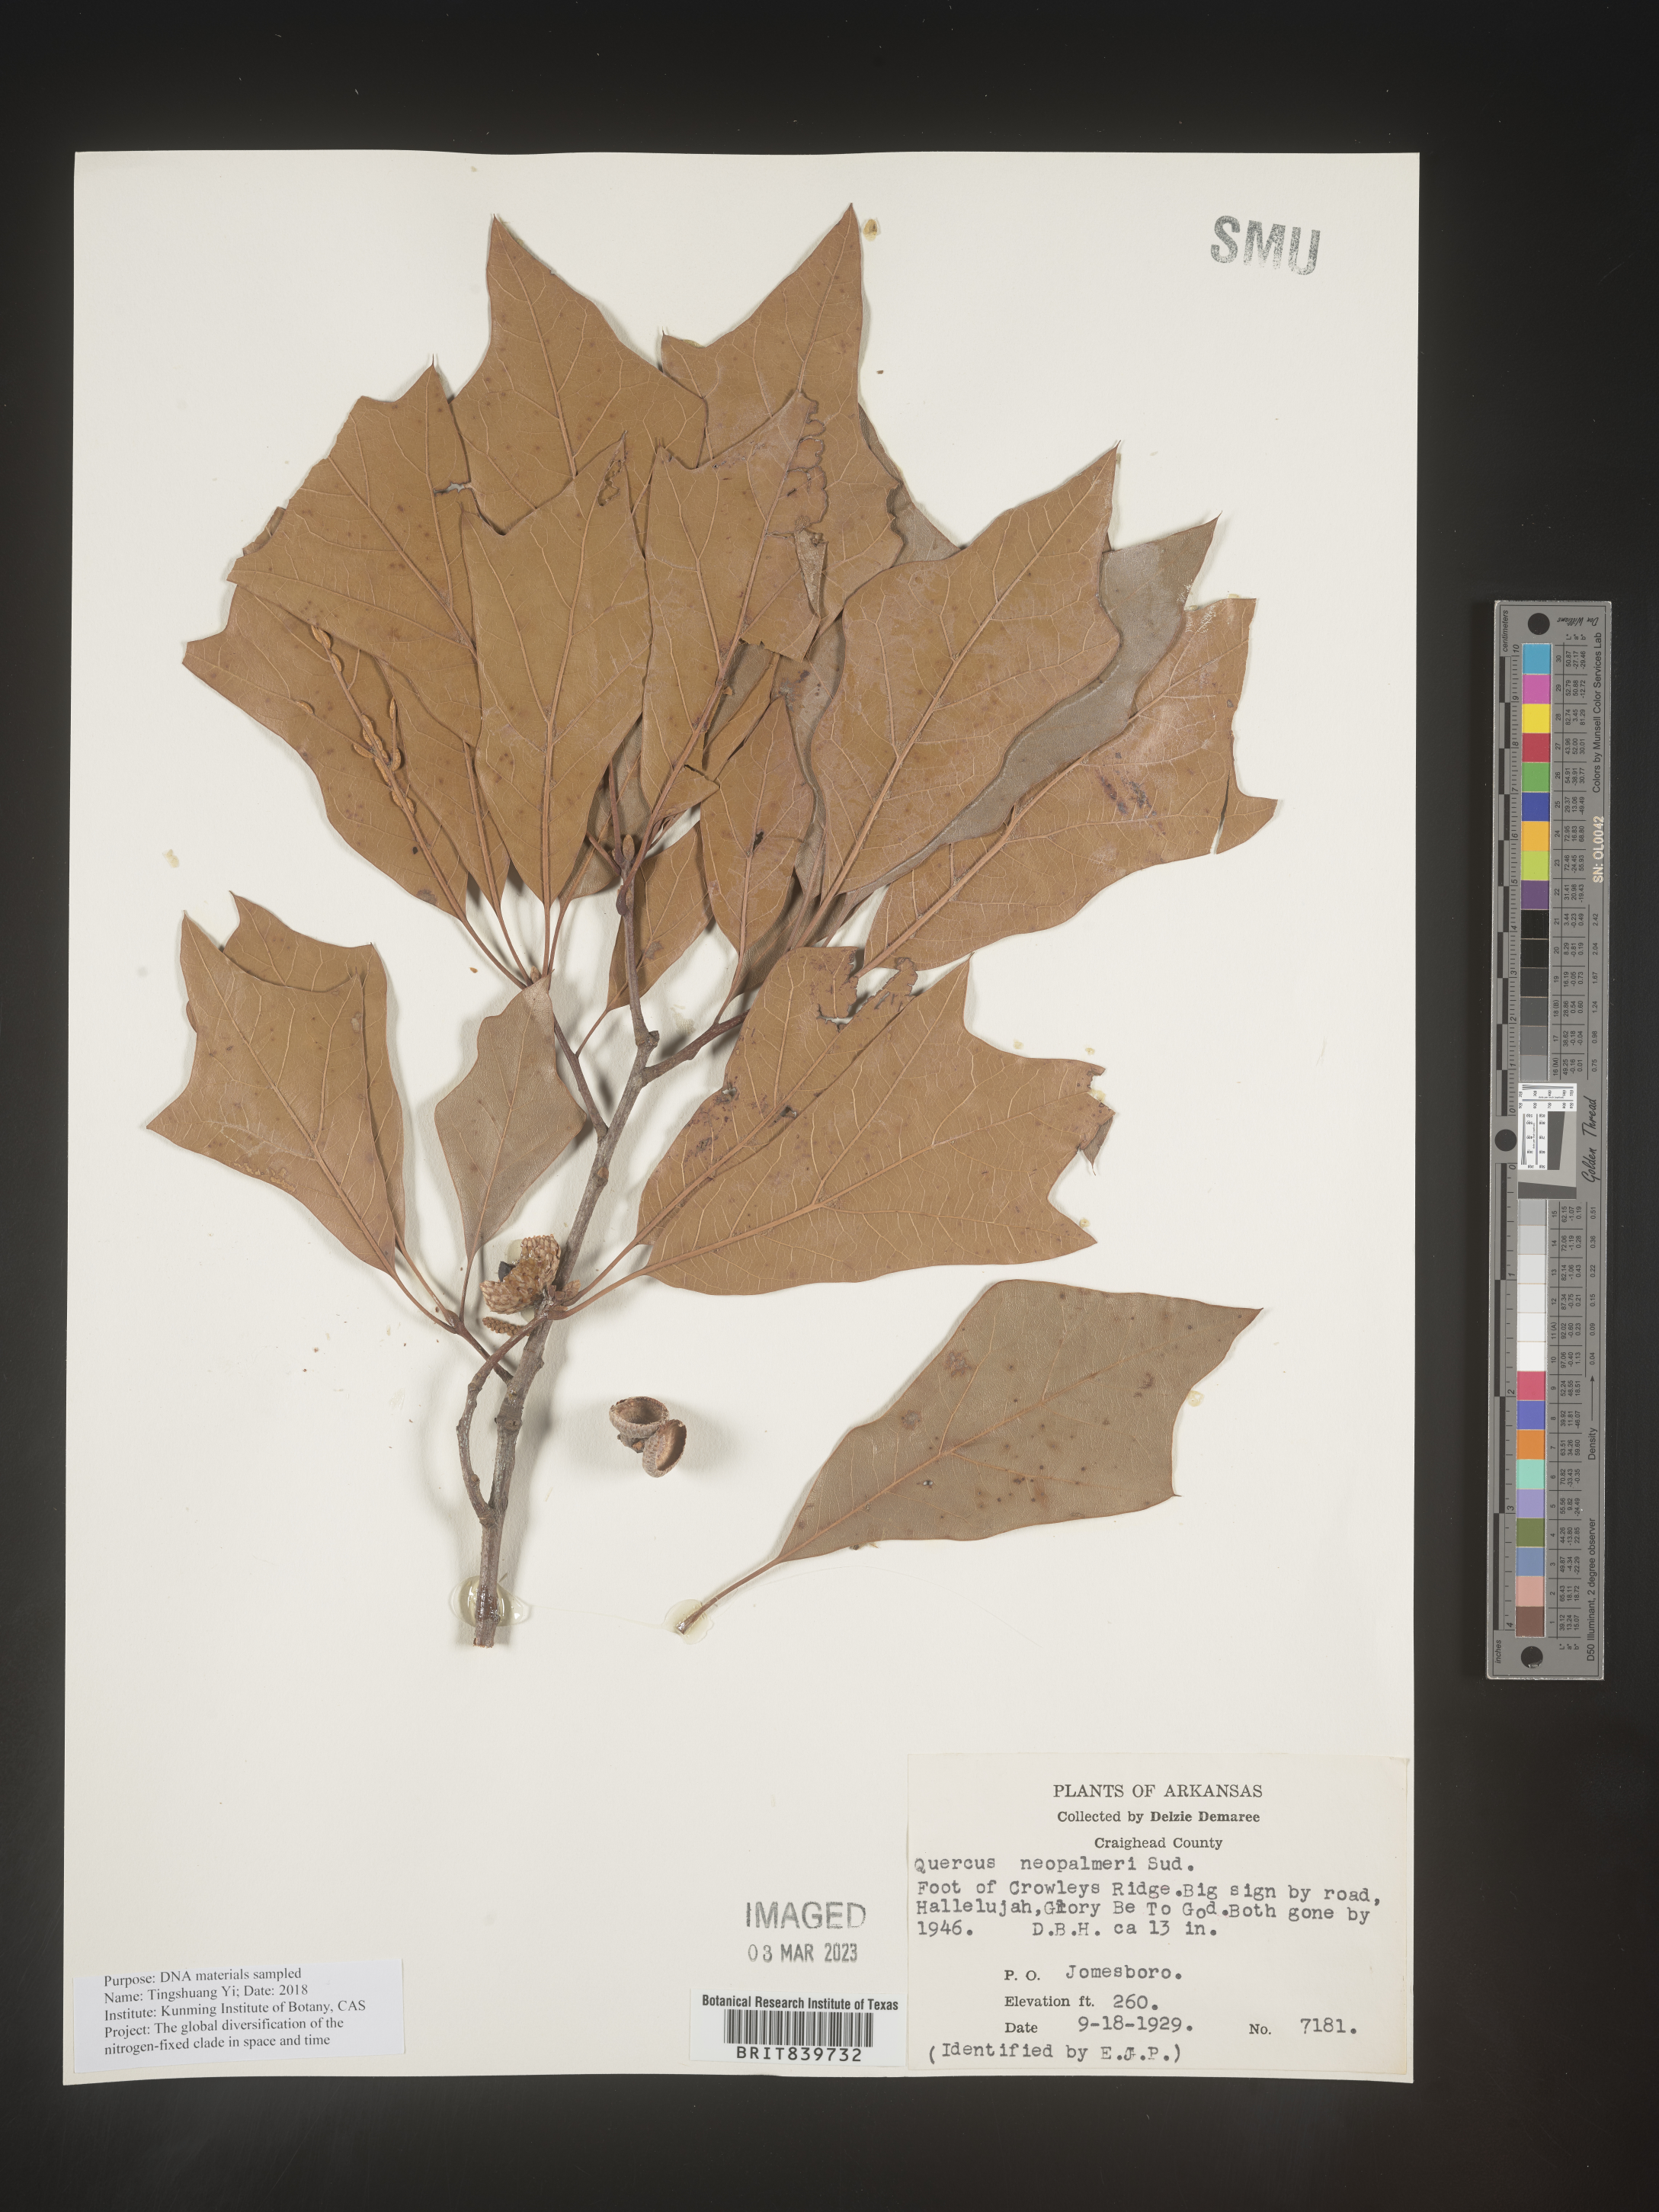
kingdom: Plantae
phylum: Tracheophyta
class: Magnoliopsida
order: Fagales
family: Fagaceae
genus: Quercus
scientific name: Quercus
